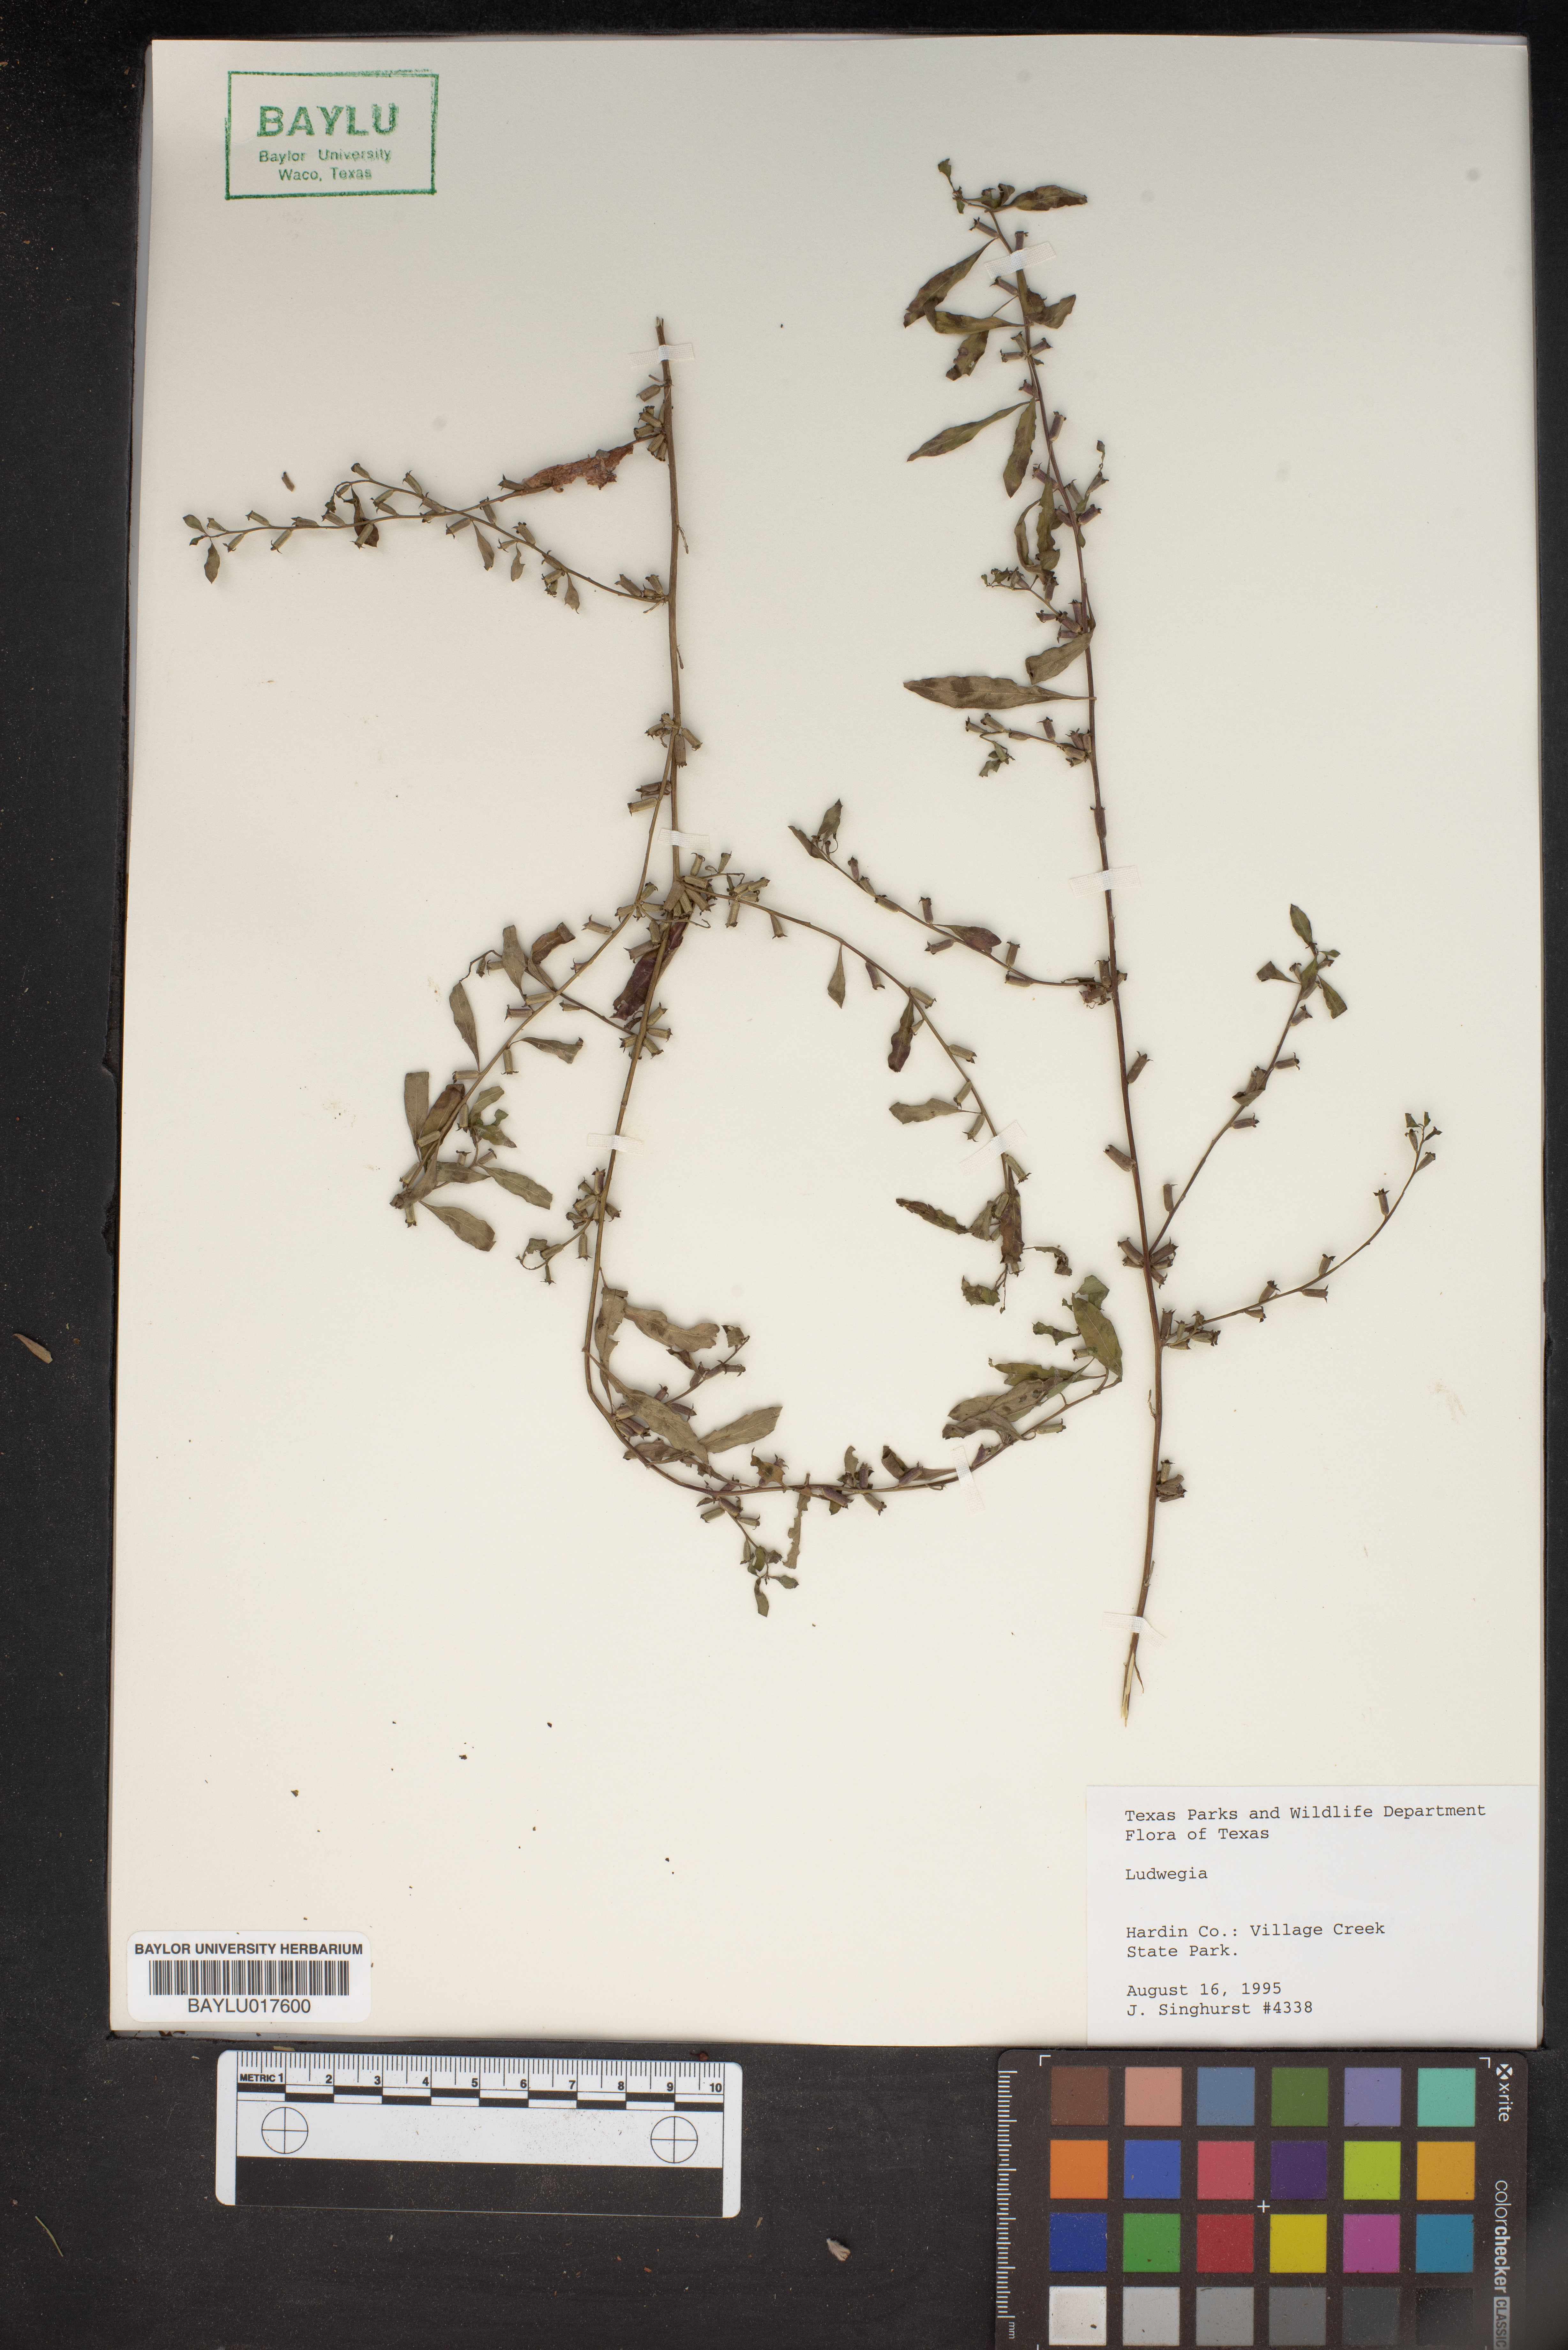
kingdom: Plantae
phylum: Tracheophyta
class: Magnoliopsida
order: Myrtales
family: Onagraceae
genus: Ludwigia
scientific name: Ludwigia
